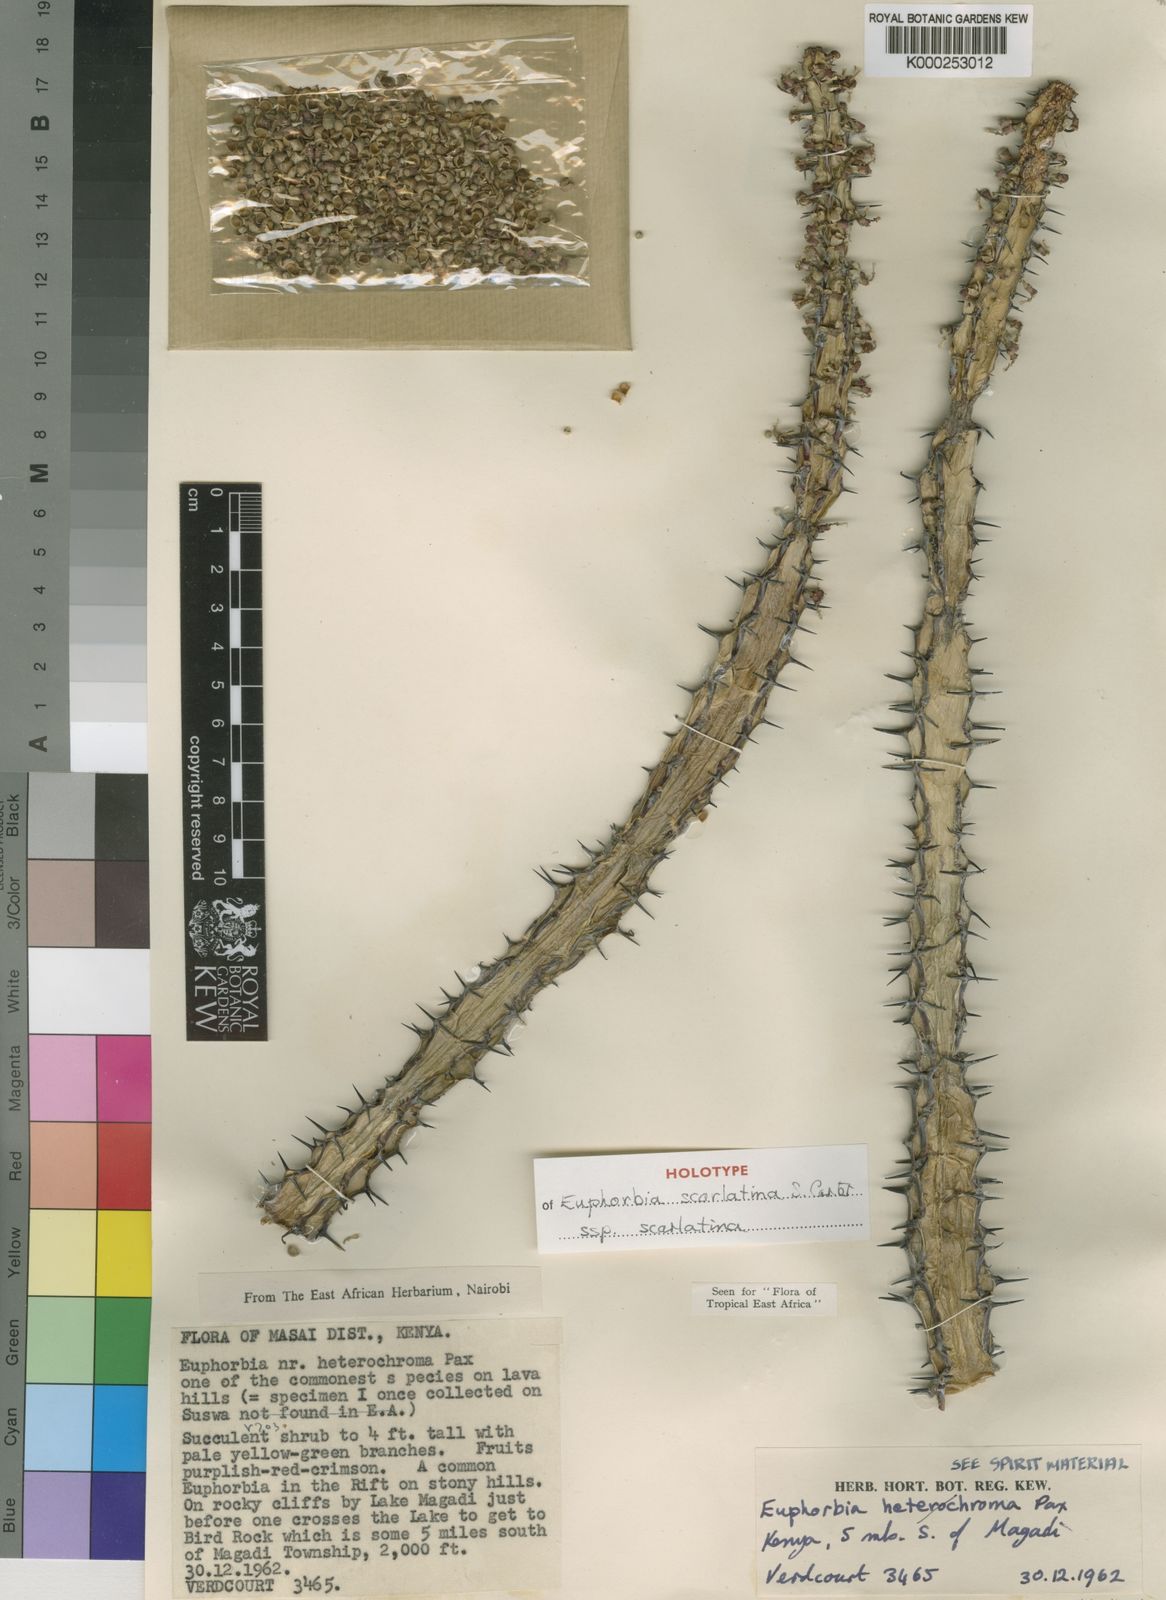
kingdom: Plantae
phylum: Tracheophyta
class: Magnoliopsida
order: Malpighiales
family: Euphorbiaceae
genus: Euphorbia
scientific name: Euphorbia scarlatina
